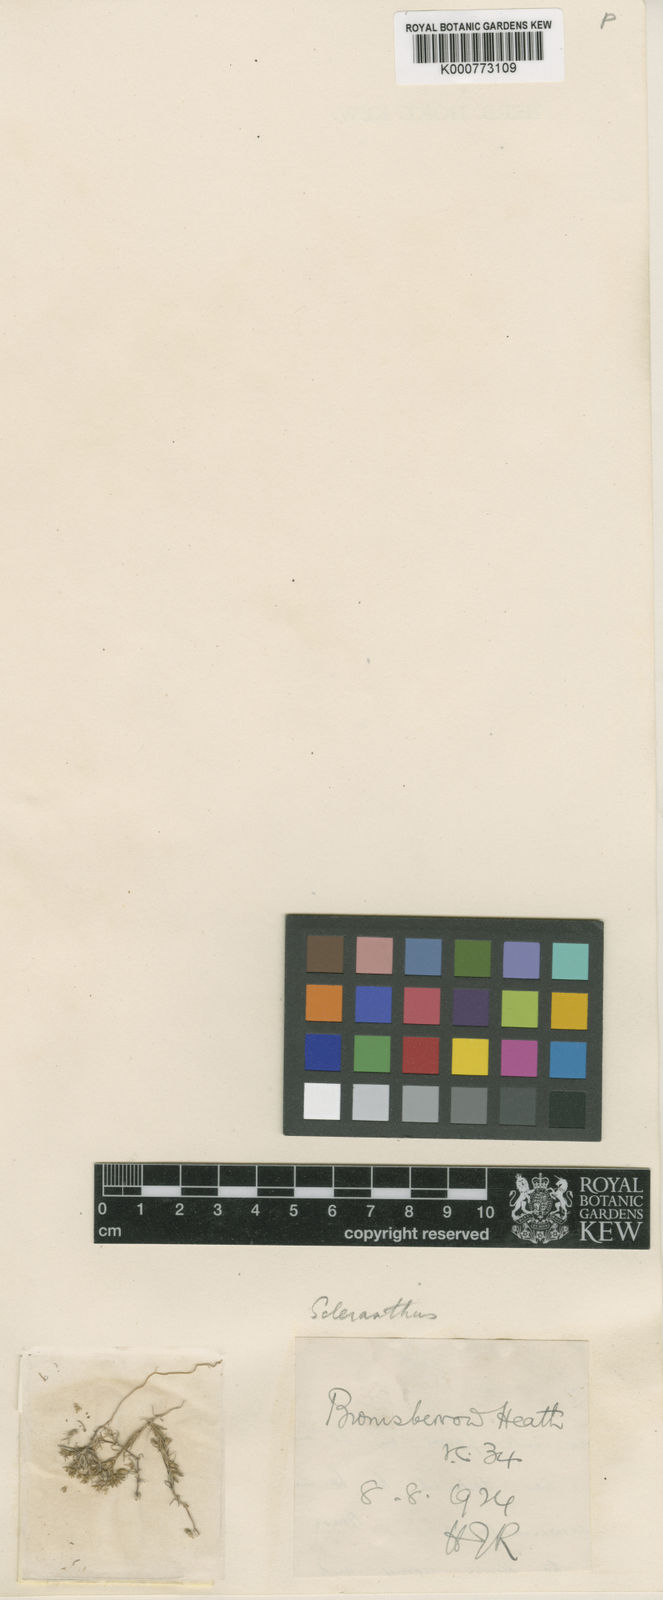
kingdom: Plantae
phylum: Tracheophyta
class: Magnoliopsida
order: Caryophyllales
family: Caryophyllaceae
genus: Scleranthus
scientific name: Scleranthus annuus
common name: Annual knawel
